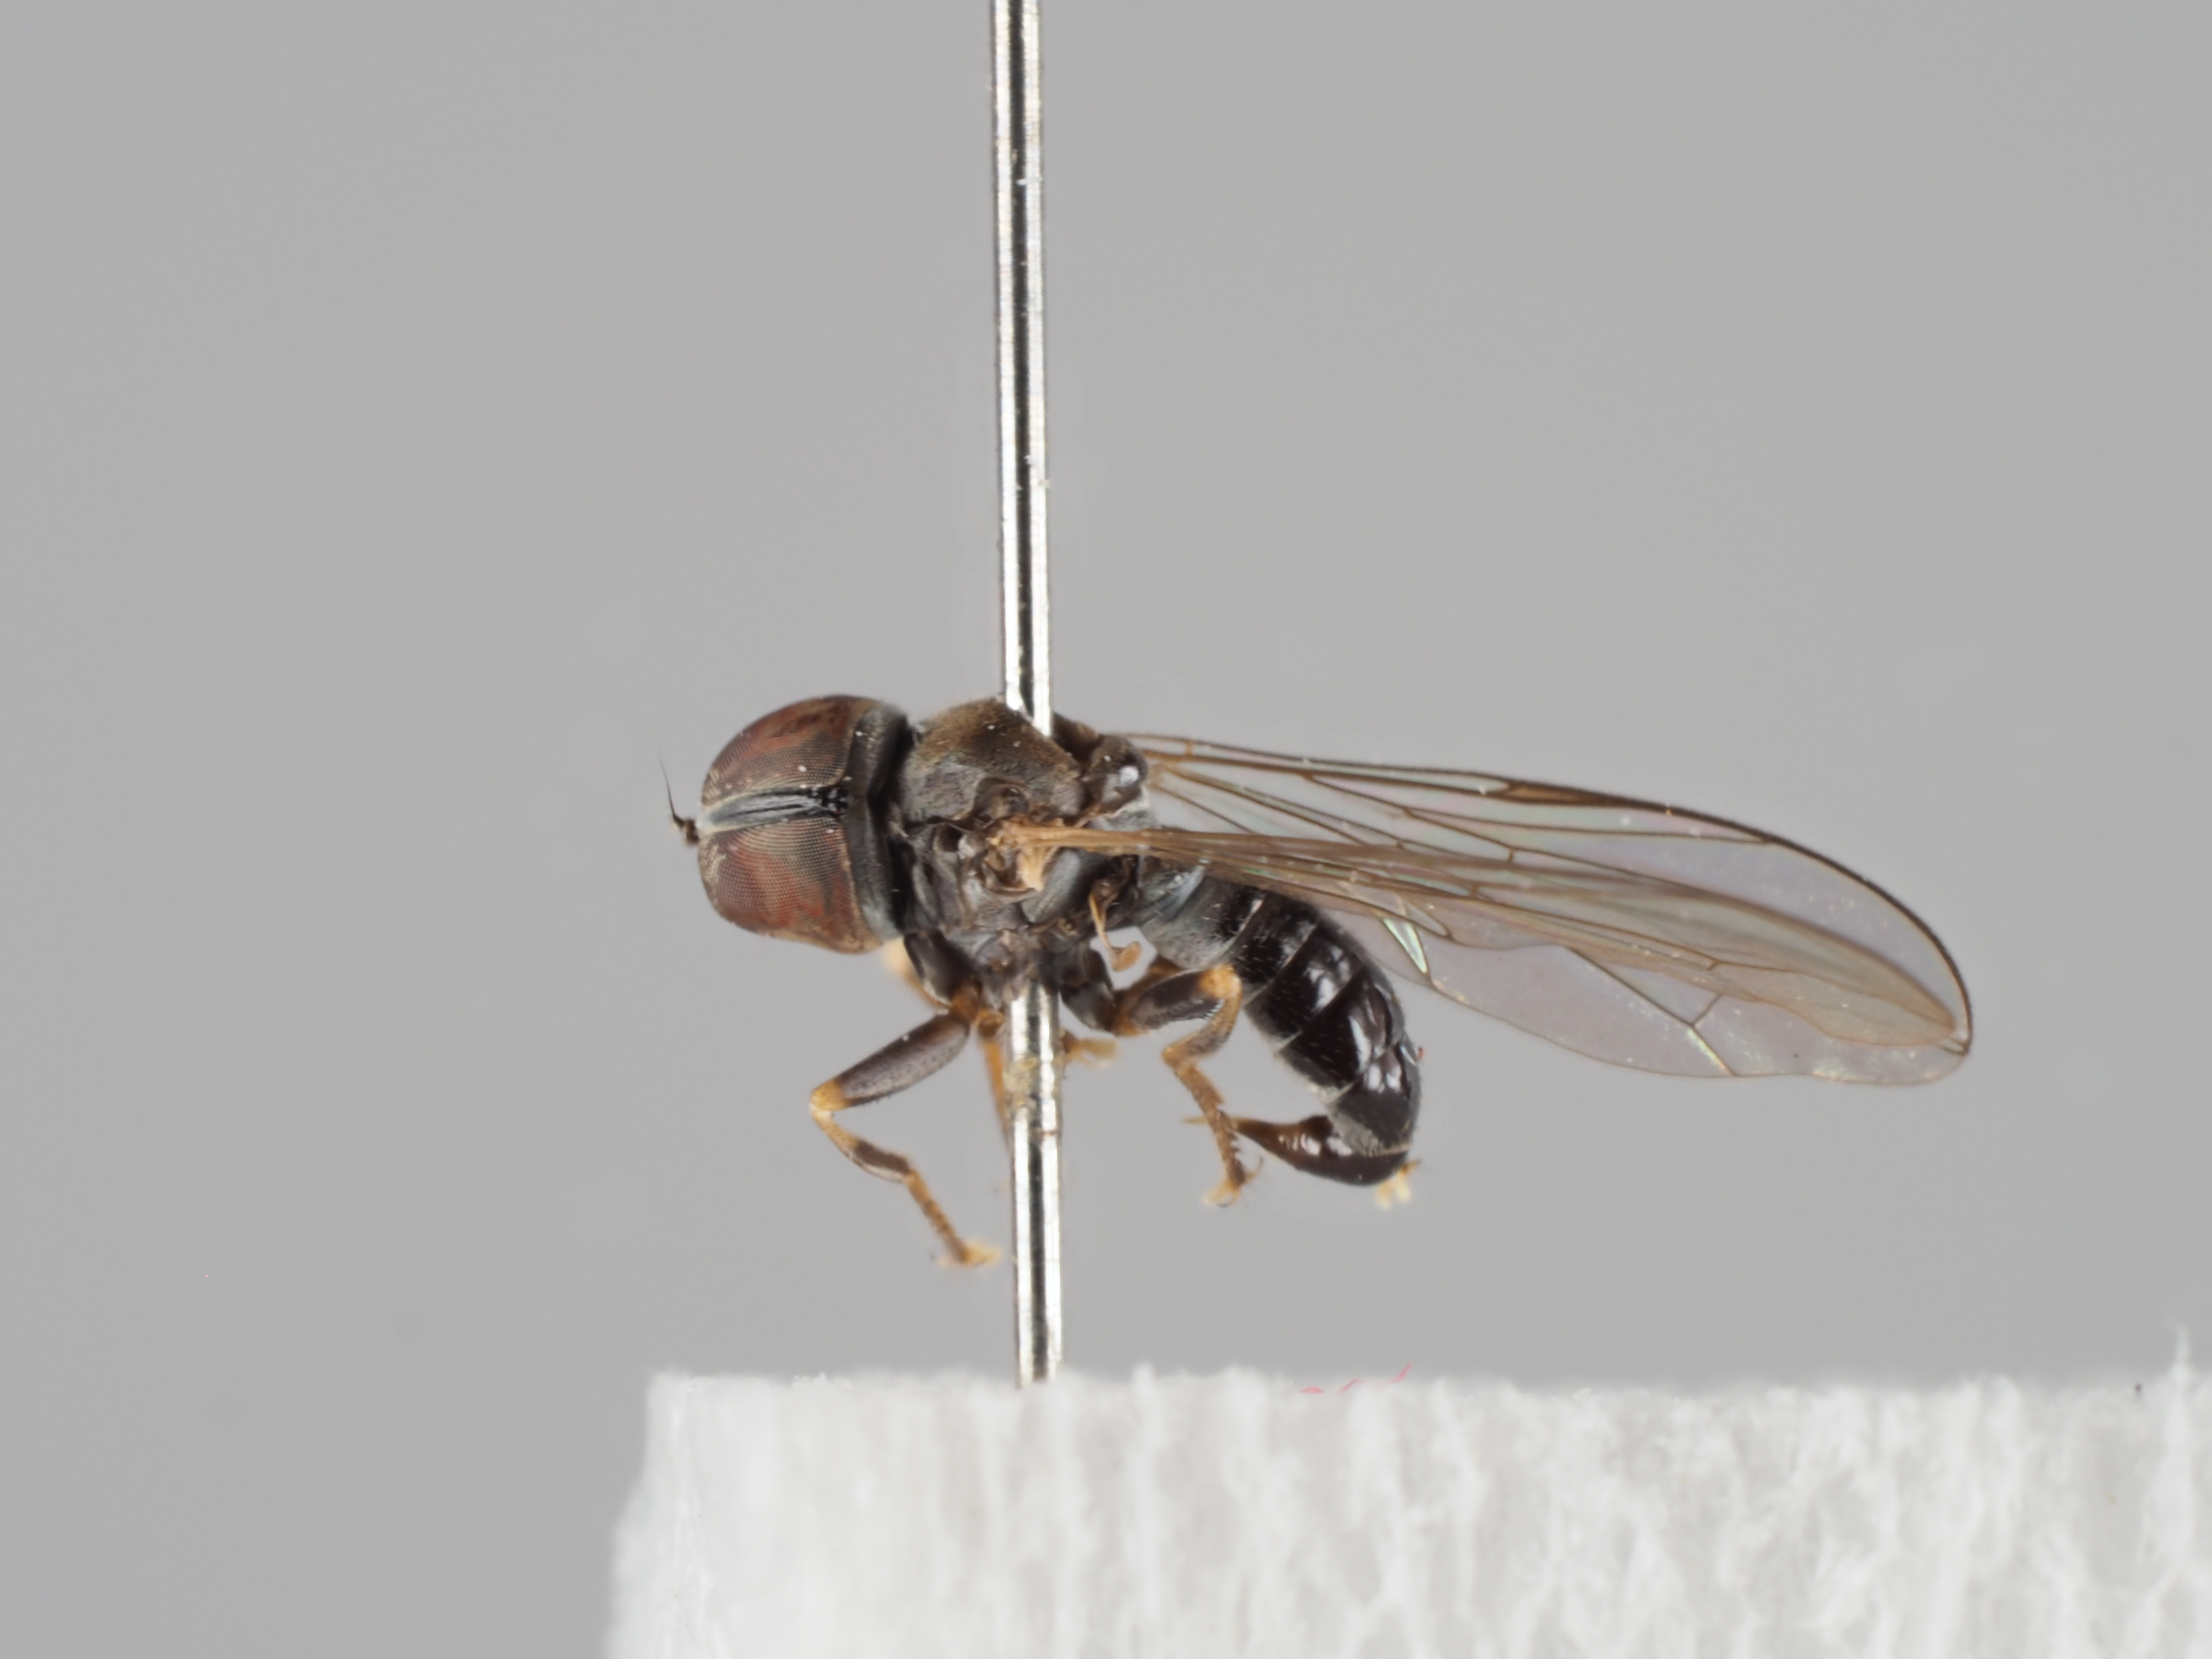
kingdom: Animalia
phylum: Arthropoda
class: Insecta
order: Diptera
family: Pipunculidae
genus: Pipunculus
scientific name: Pipunculus fonsecai
